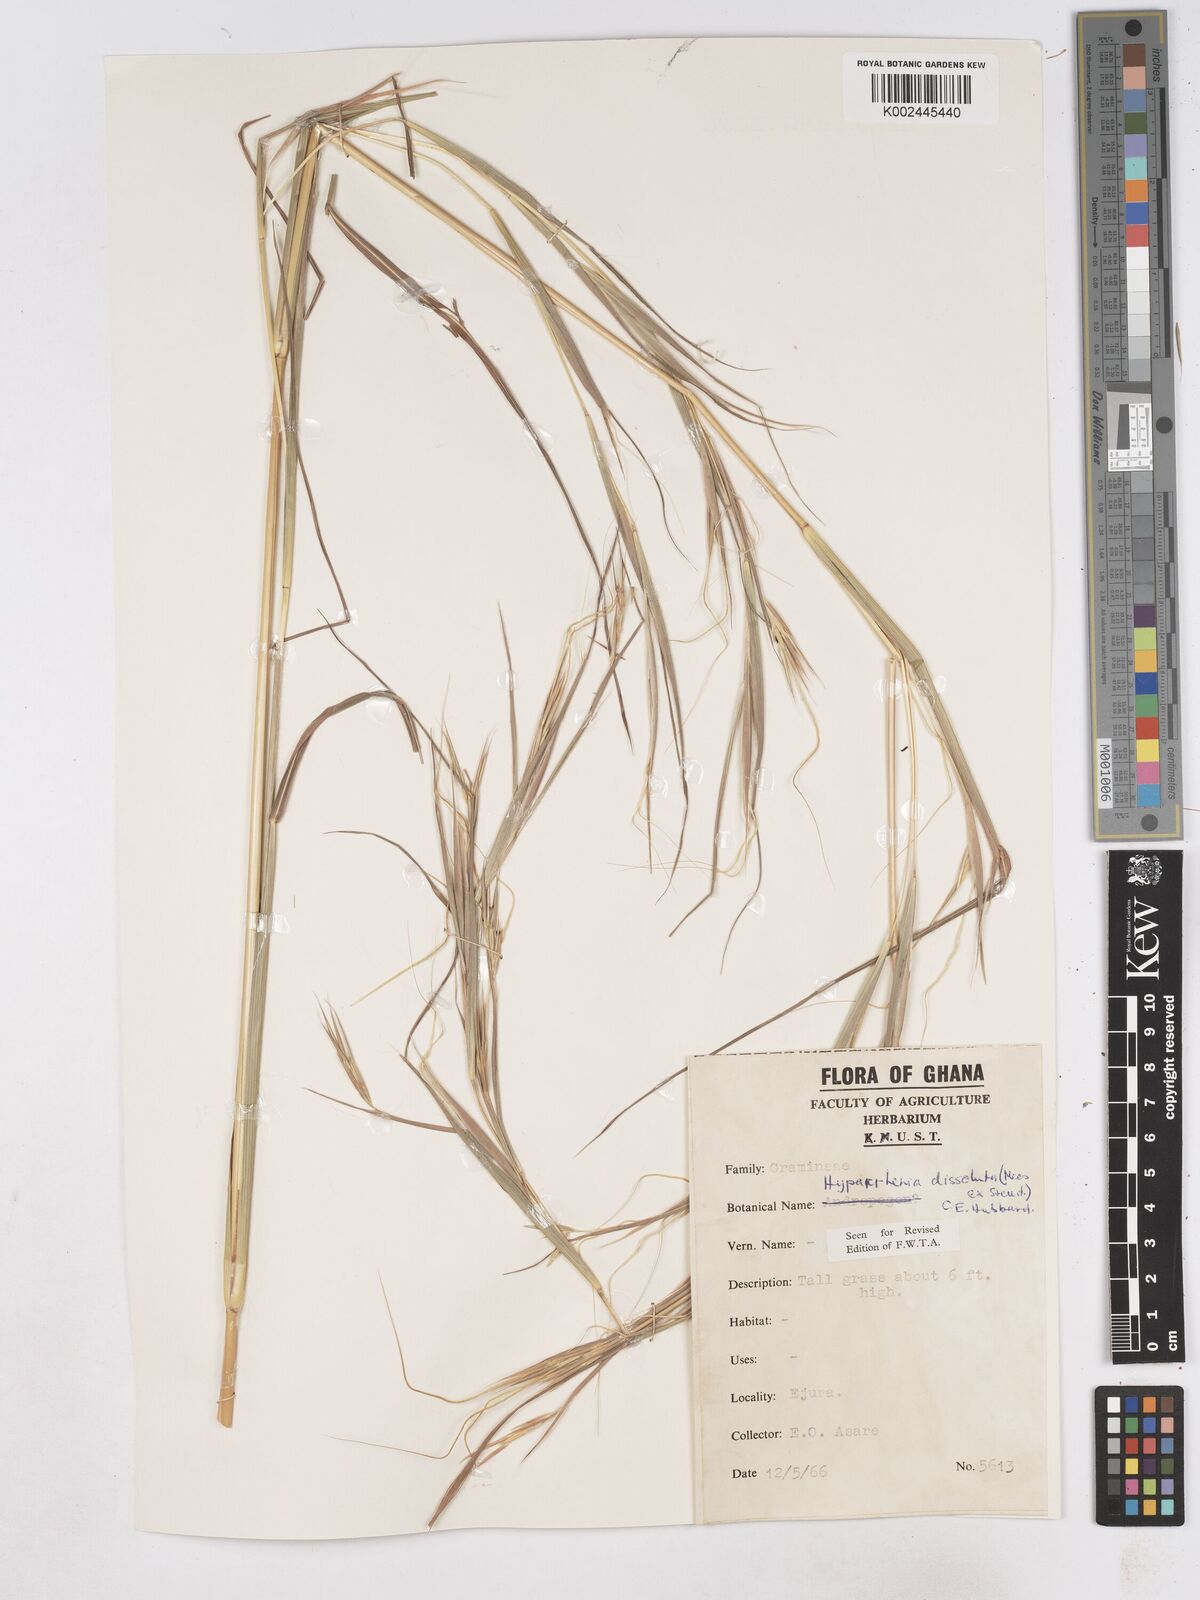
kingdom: Plantae
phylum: Tracheophyta
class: Liliopsida
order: Poales
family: Poaceae
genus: Hyperthelia
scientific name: Hyperthelia dissoluta
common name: Yellow thatching grass
